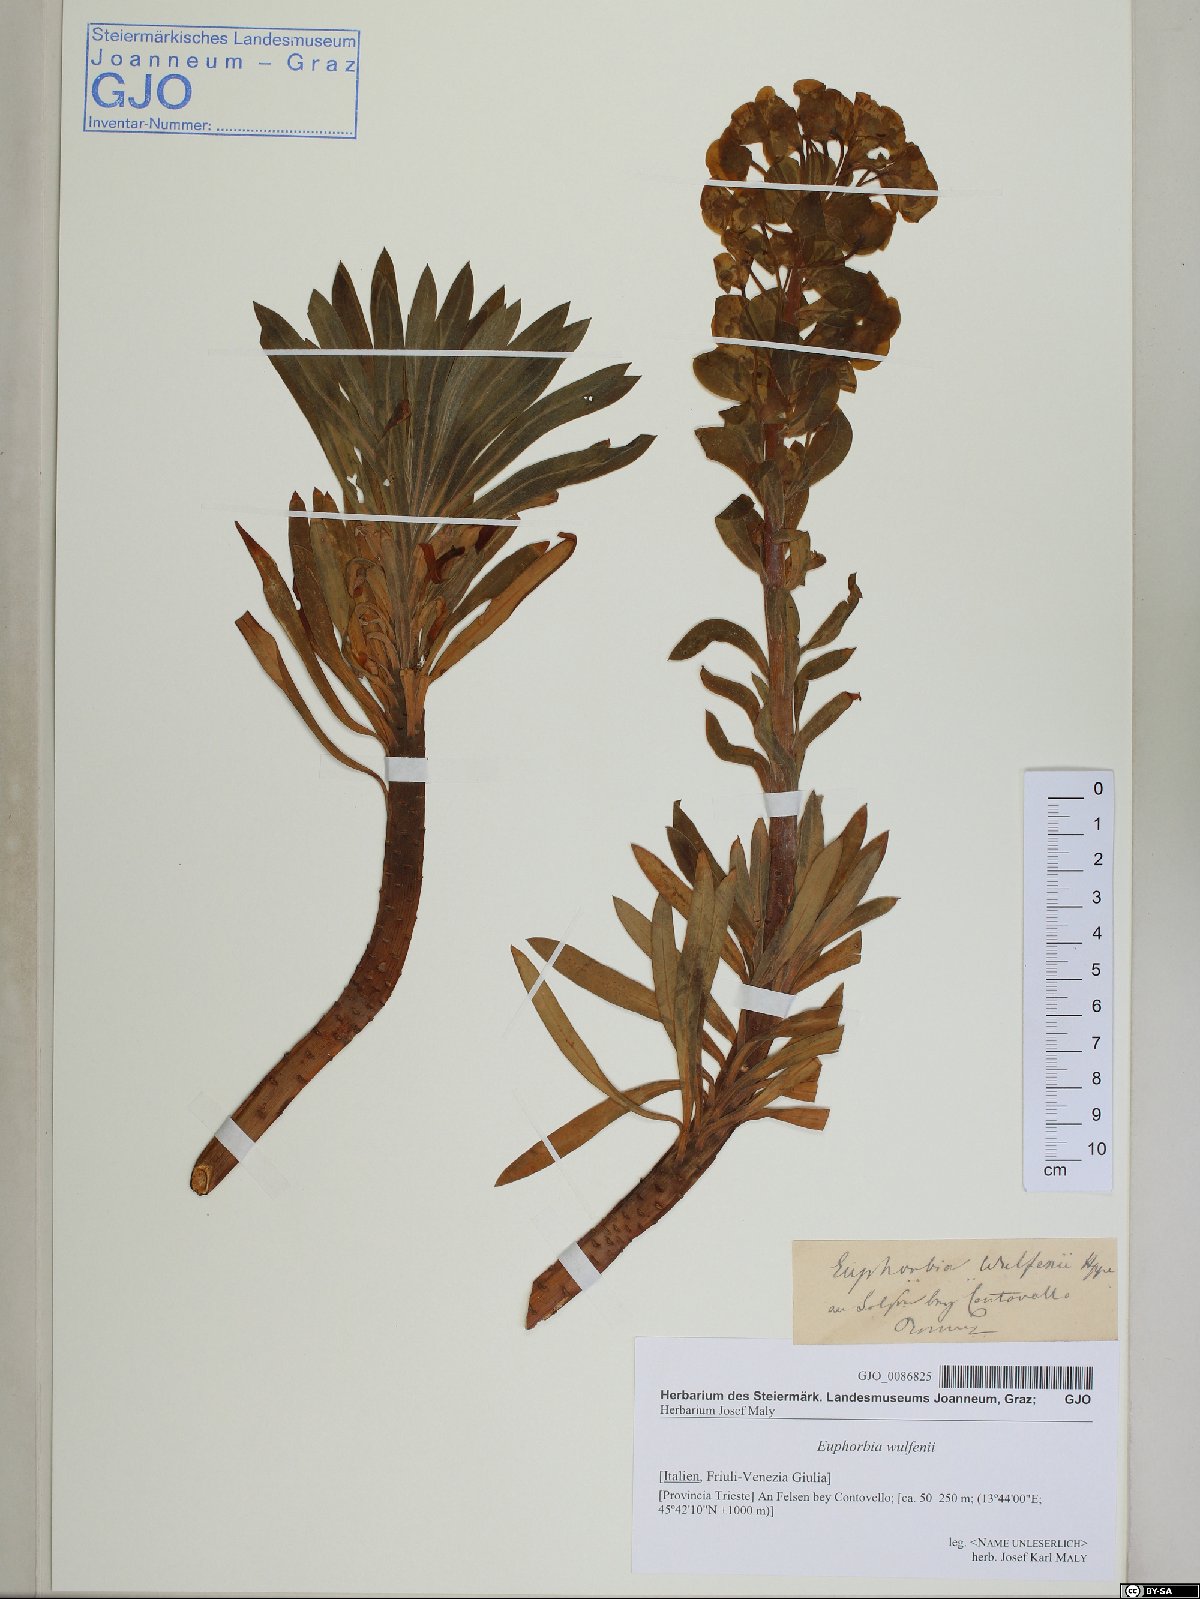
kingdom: Plantae
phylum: Tracheophyta
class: Magnoliopsida
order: Malpighiales
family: Euphorbiaceae
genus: Euphorbia
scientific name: Euphorbia characias
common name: Mediterranean spurge
